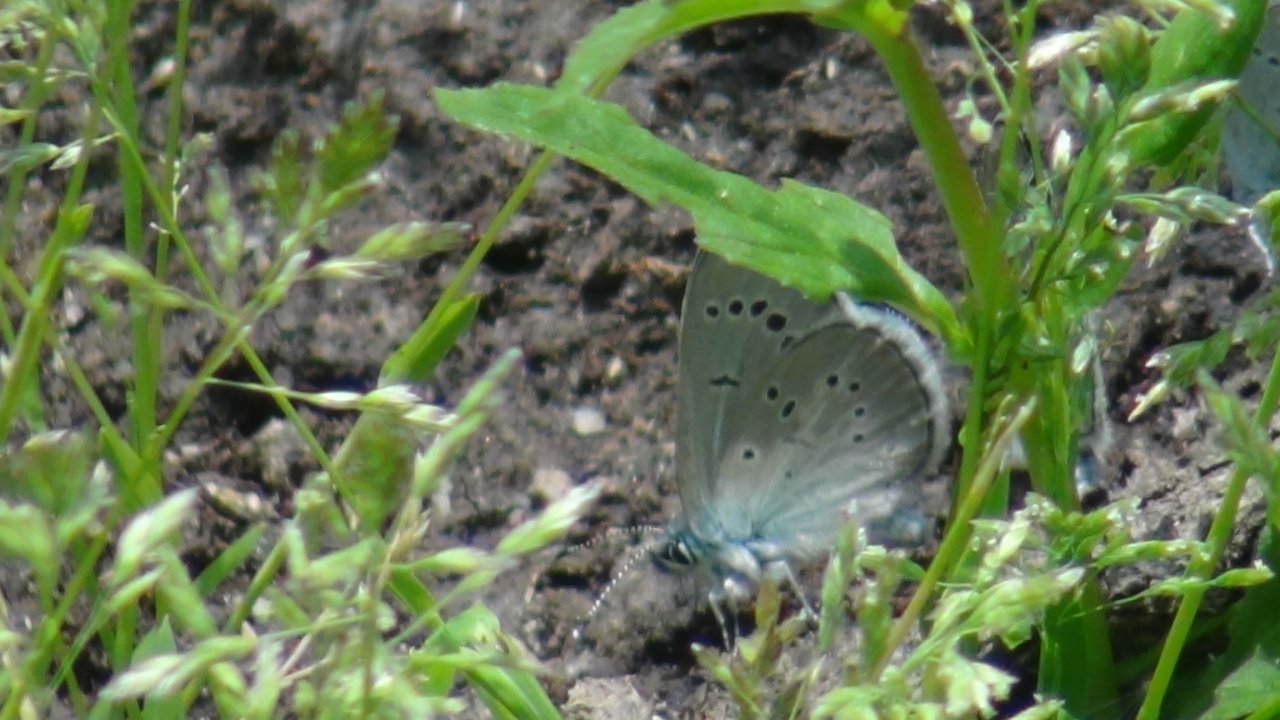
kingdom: Animalia
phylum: Arthropoda
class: Insecta
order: Lepidoptera
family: Lycaenidae
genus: Glaucopsyche
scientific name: Glaucopsyche lygdamus
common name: Silvery Blue
